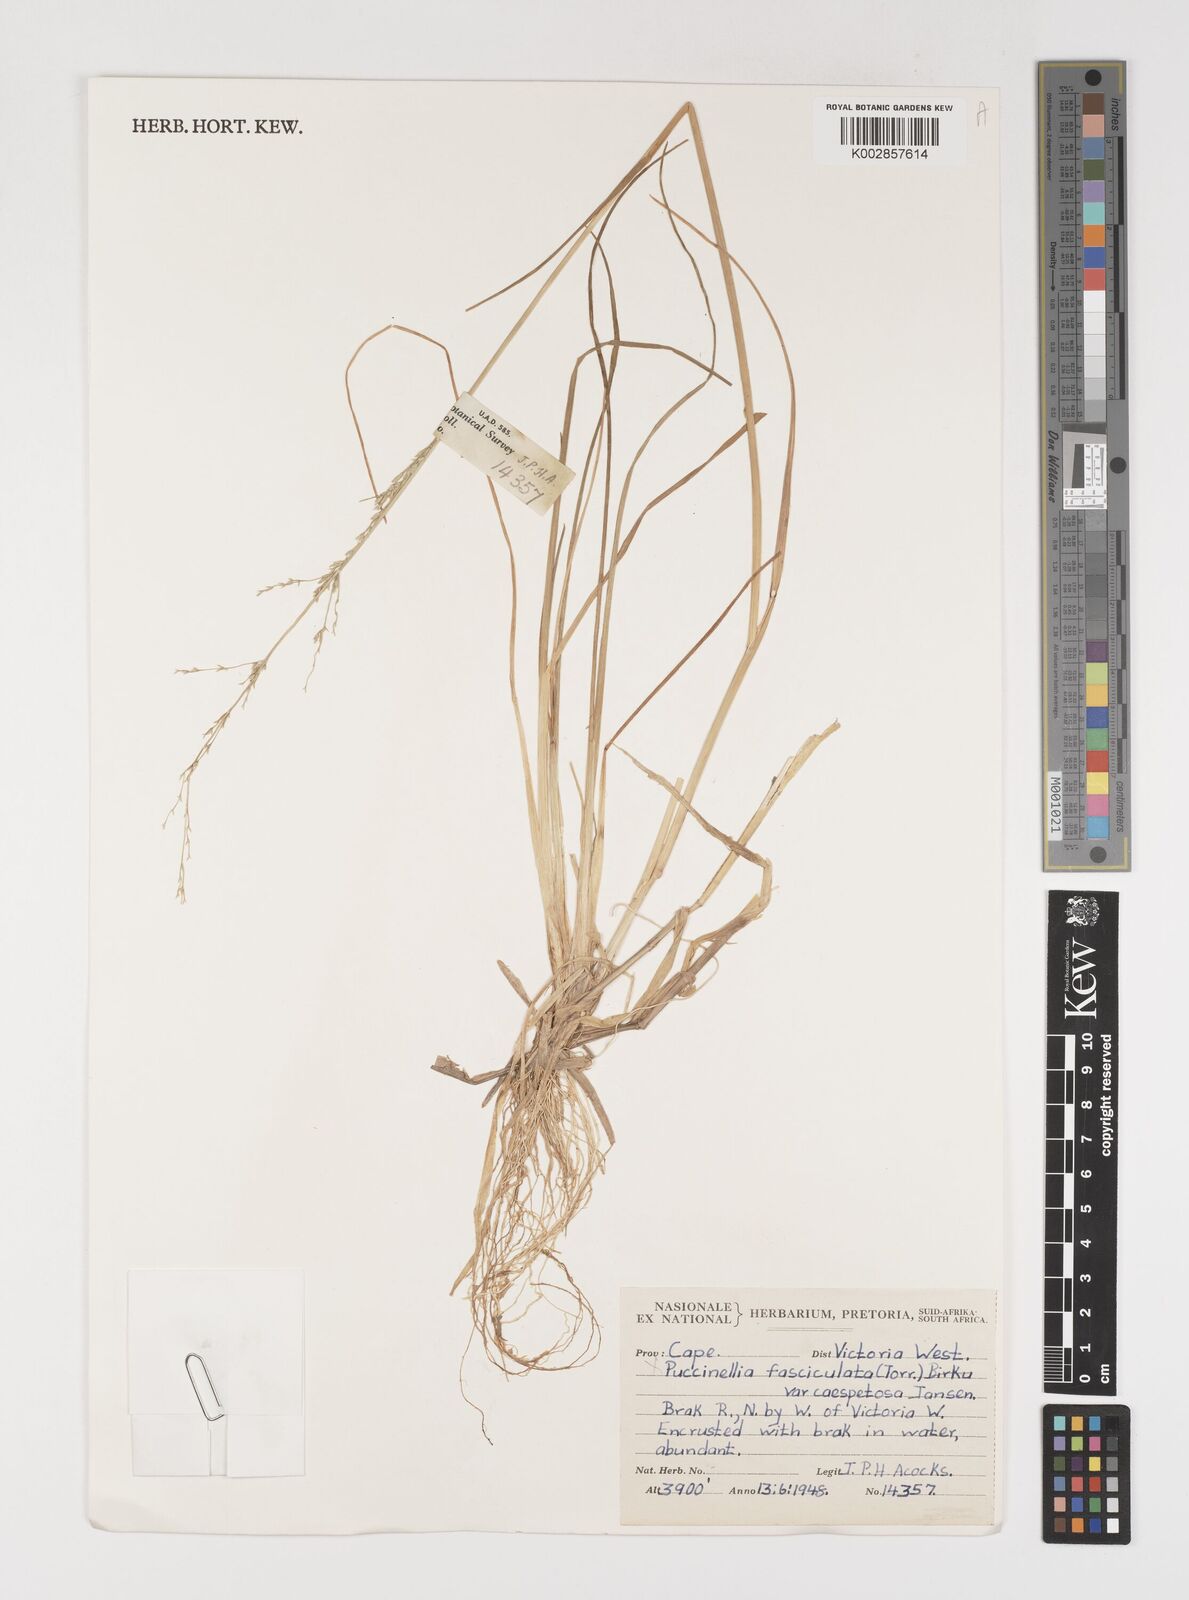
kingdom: Plantae
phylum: Tracheophyta
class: Liliopsida
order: Poales
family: Poaceae
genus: Puccinellia
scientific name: Puccinellia fasciculata
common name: Borrer's saltmarsh-grass
